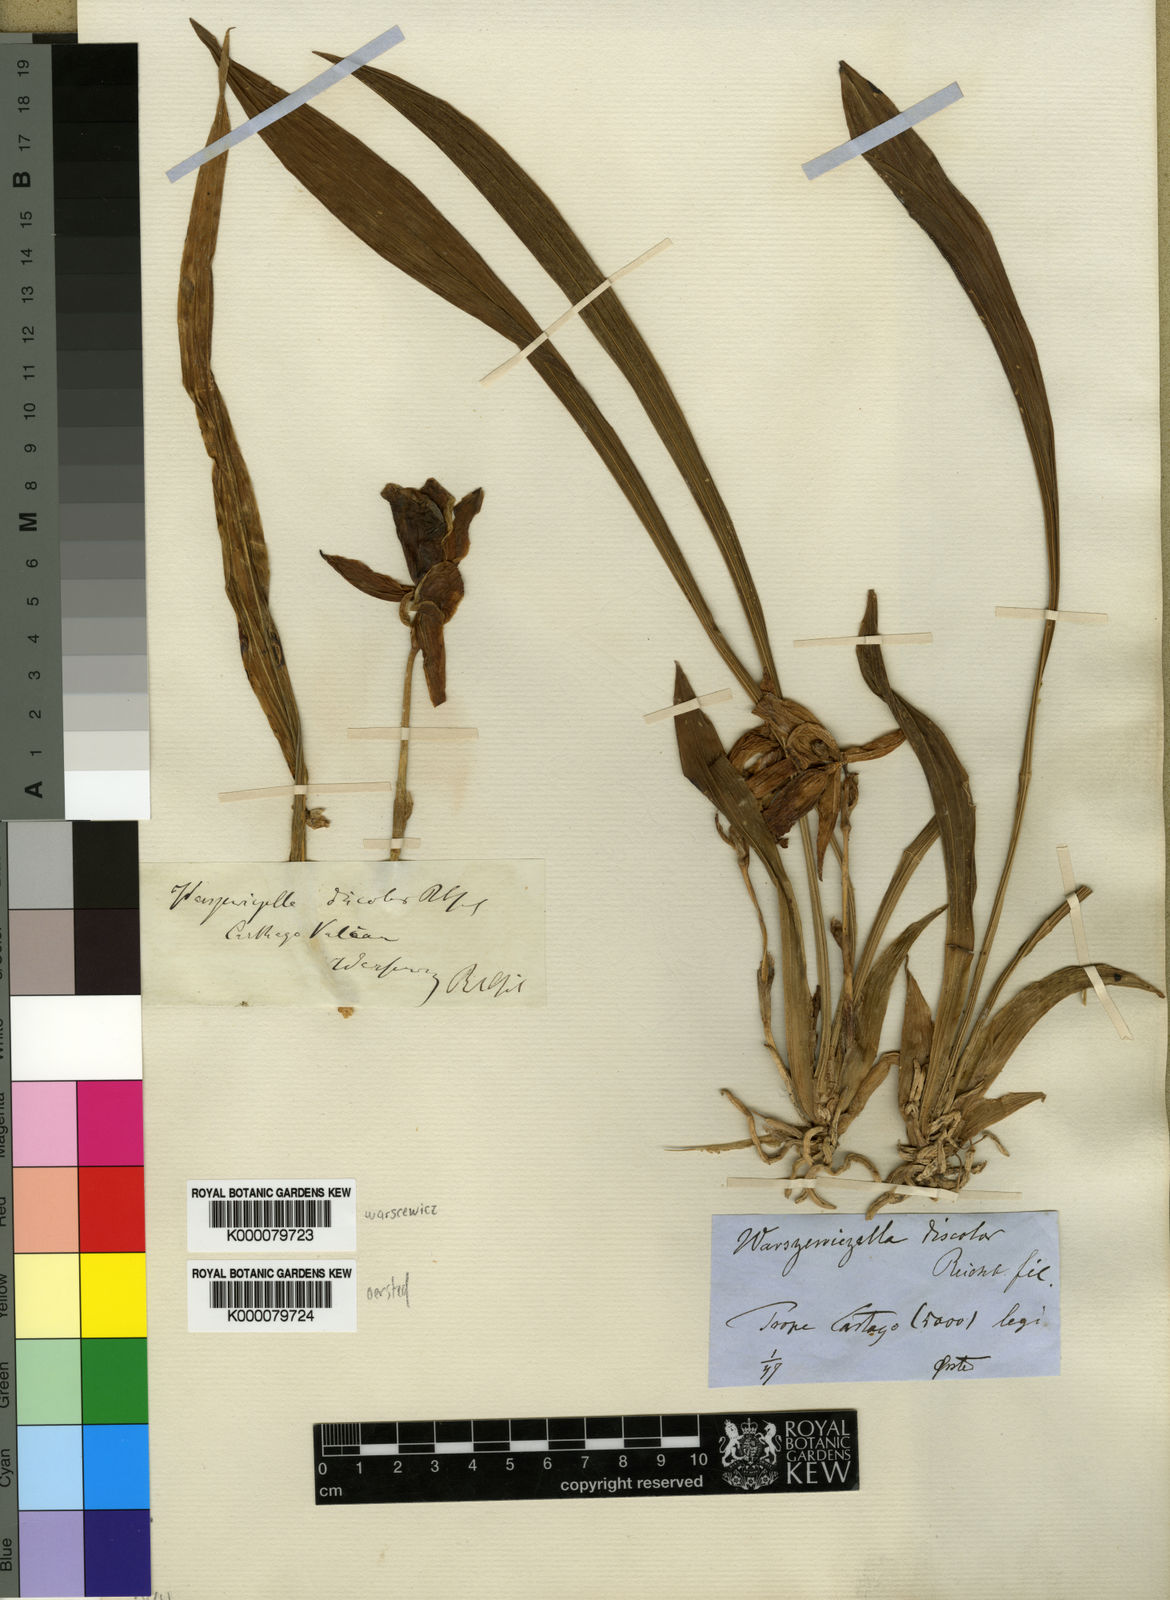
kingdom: Plantae
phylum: Tracheophyta
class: Liliopsida
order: Asparagales
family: Orchidaceae
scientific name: Orchidaceae
